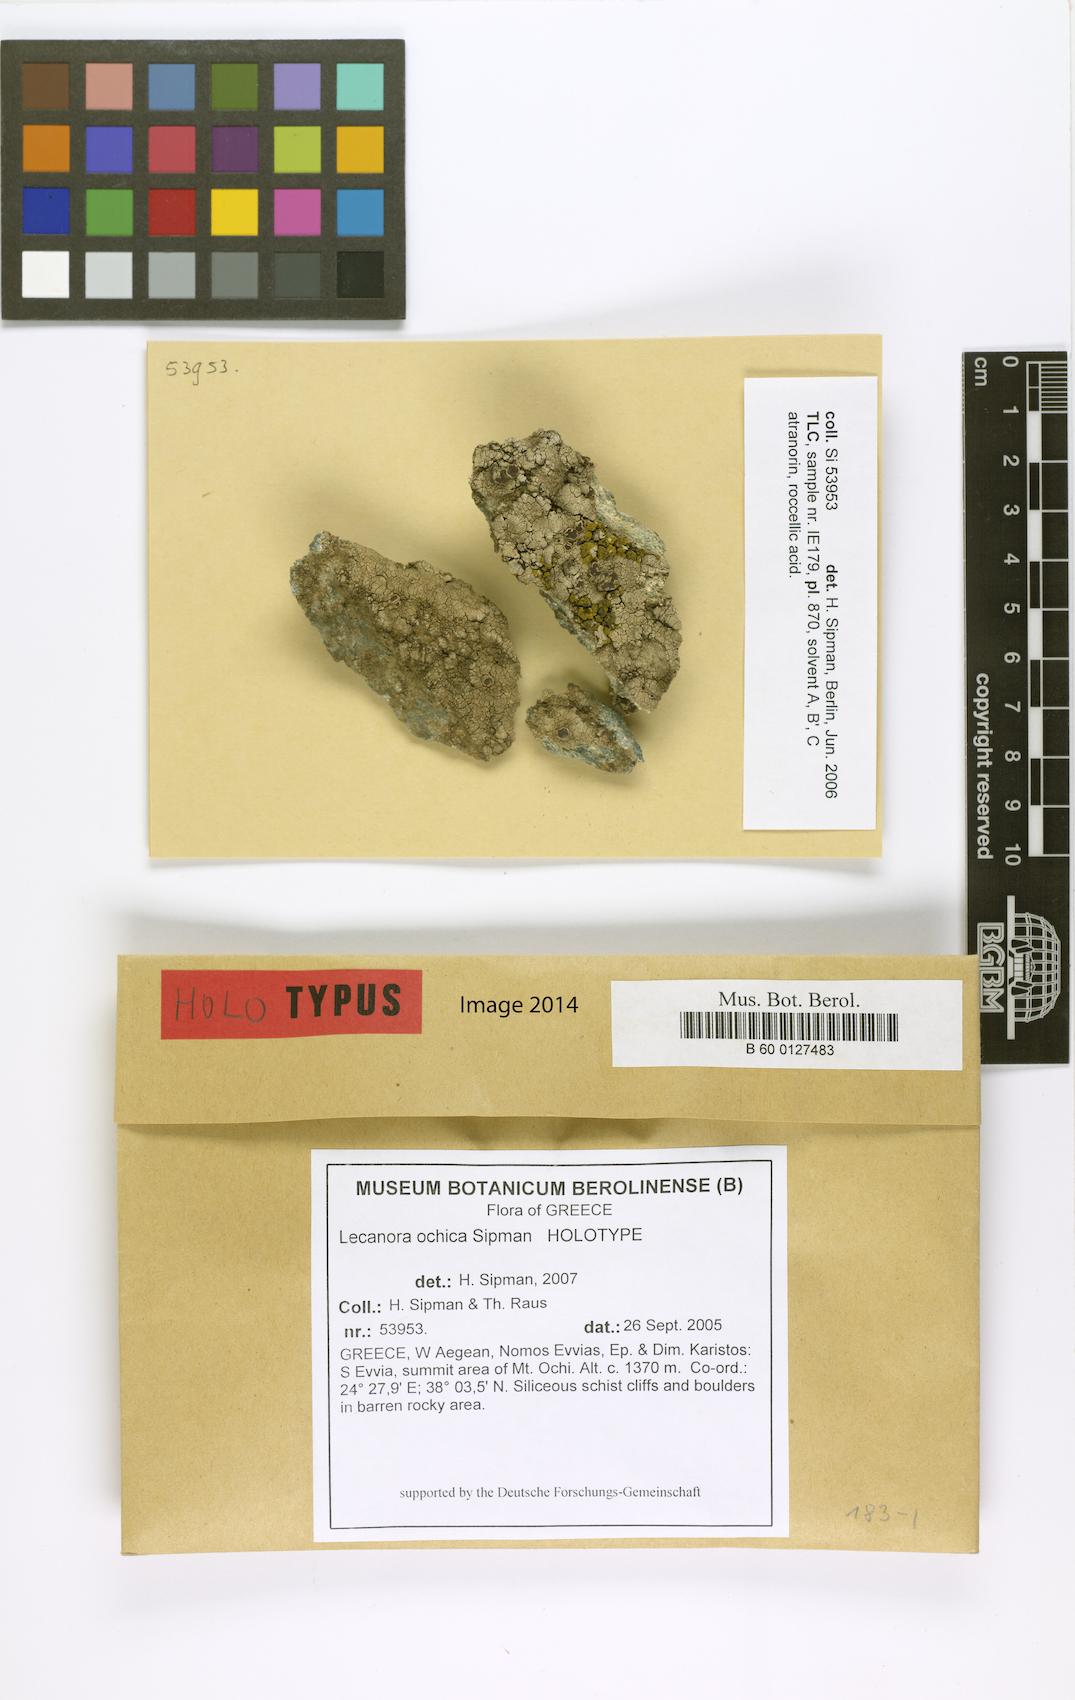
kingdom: Fungi
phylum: Ascomycota
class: Lecanoromycetes
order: Lecanorales
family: Lecanoraceae
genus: Lecanora
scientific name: Lecanora ochica
